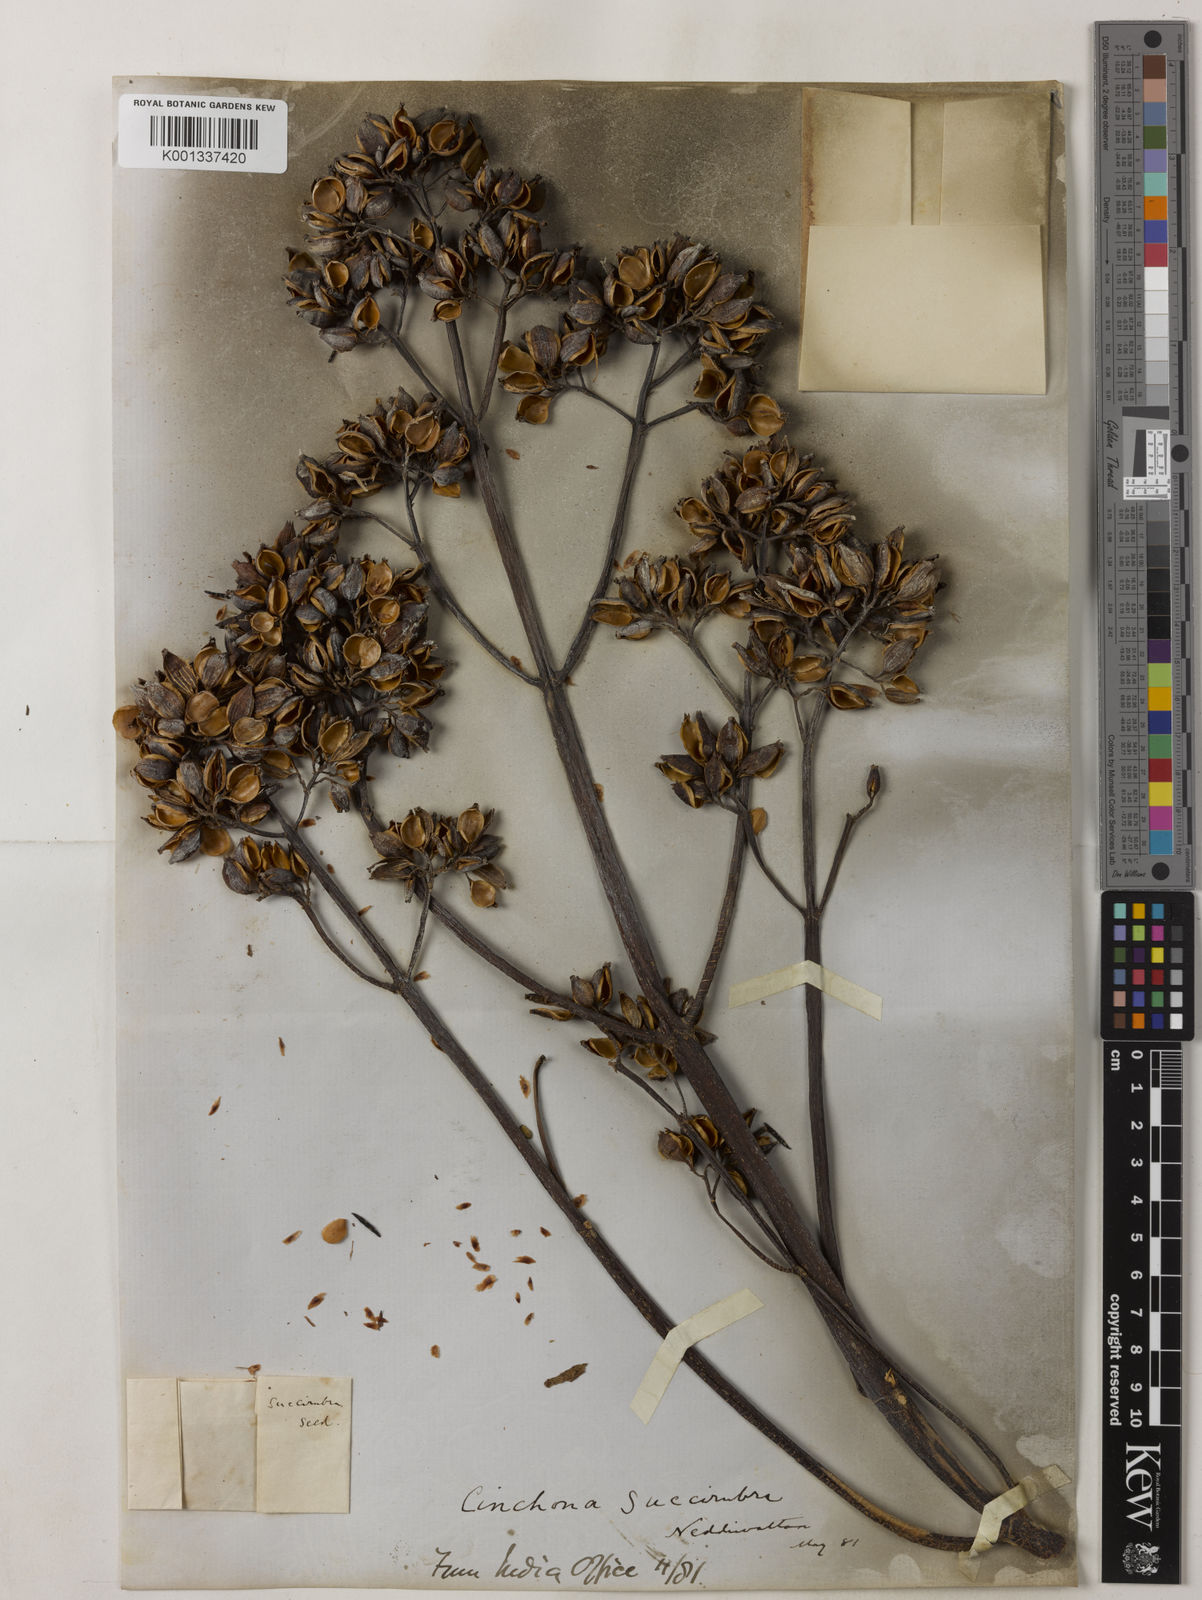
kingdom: Plantae
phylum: Tracheophyta
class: Magnoliopsida
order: Gentianales
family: Rubiaceae
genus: Cinchona
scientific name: Cinchona pubescens
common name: Quinine
